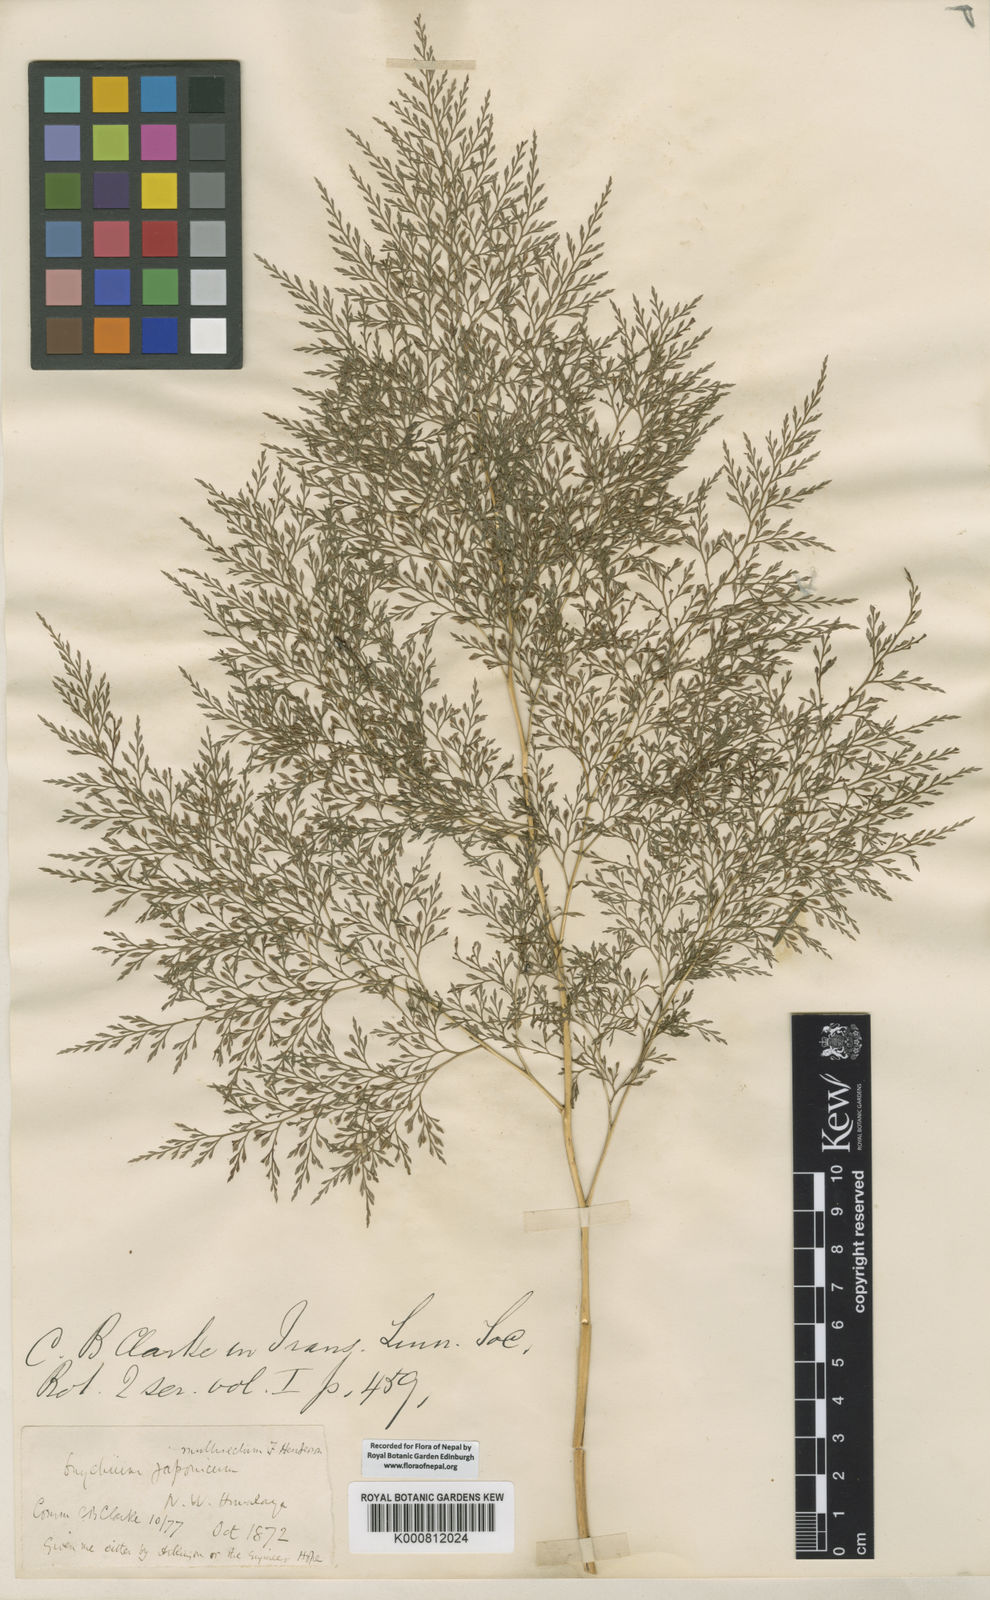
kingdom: Plantae
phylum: Tracheophyta
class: Polypodiopsida
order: Polypodiales
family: Pteridaceae
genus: Onychium
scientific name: Onychium lucidum
